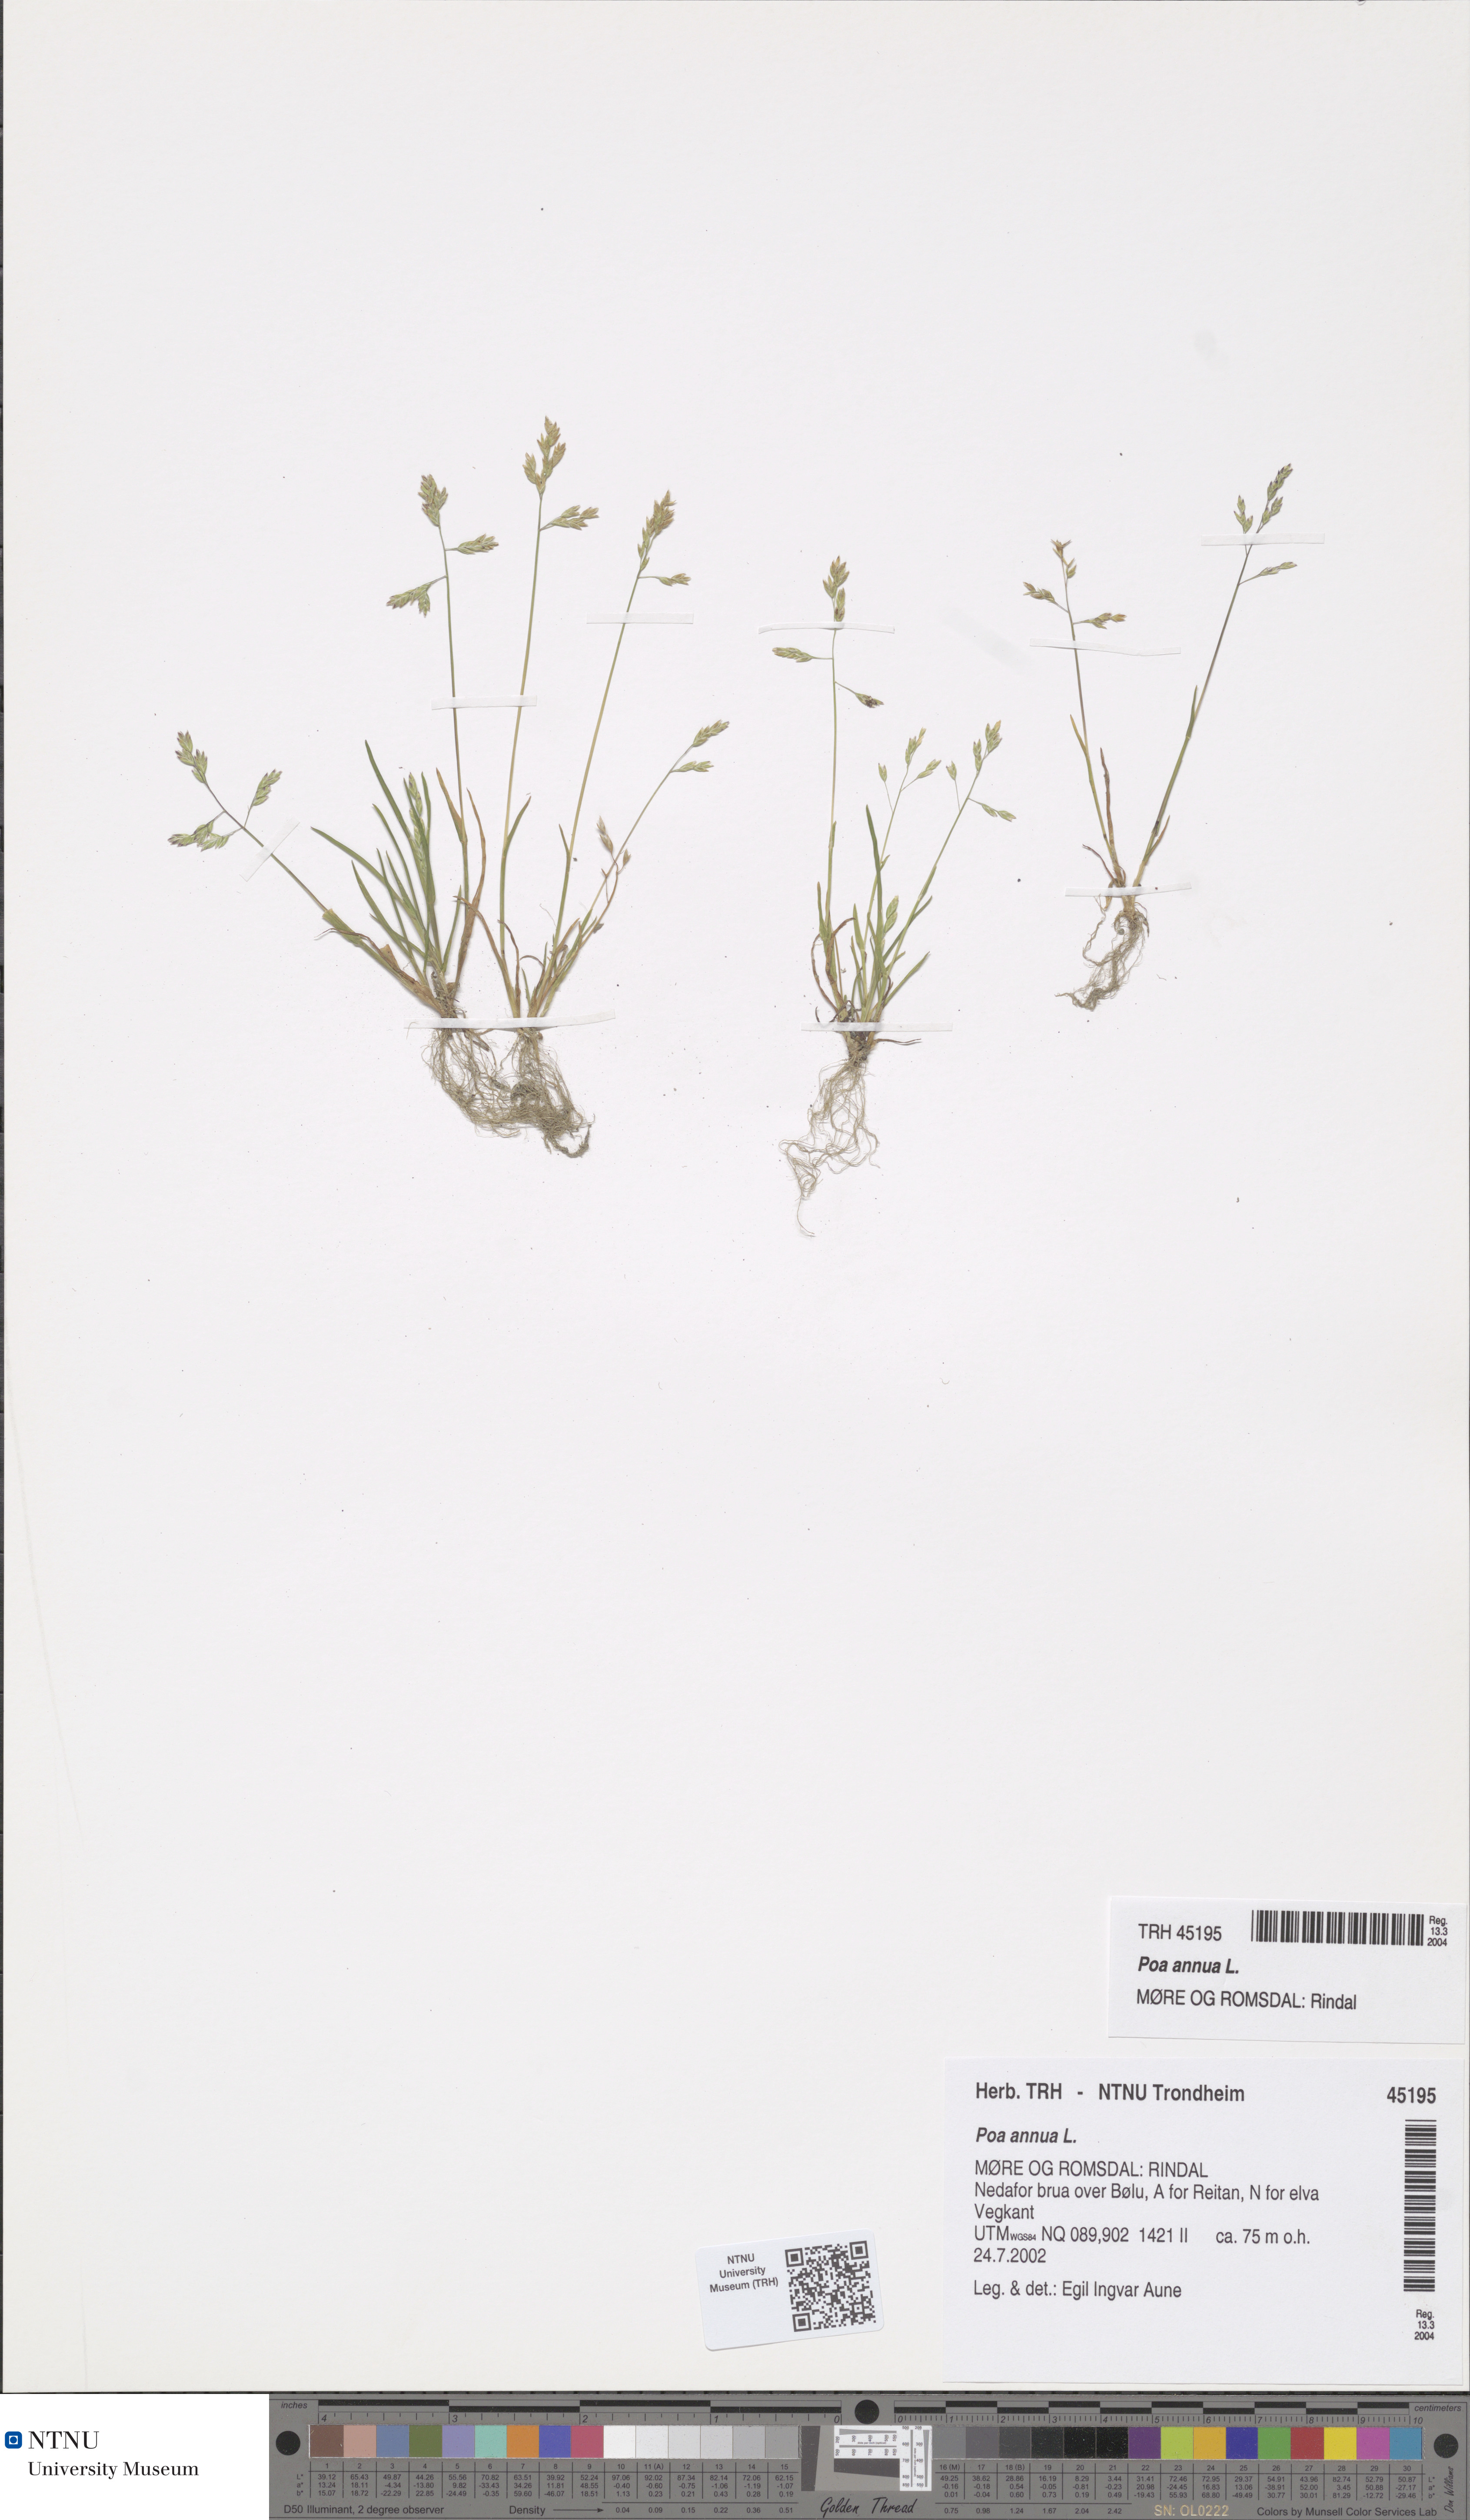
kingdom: Plantae
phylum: Tracheophyta
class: Liliopsida
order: Poales
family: Poaceae
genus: Poa
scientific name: Poa annua
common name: Annual bluegrass
